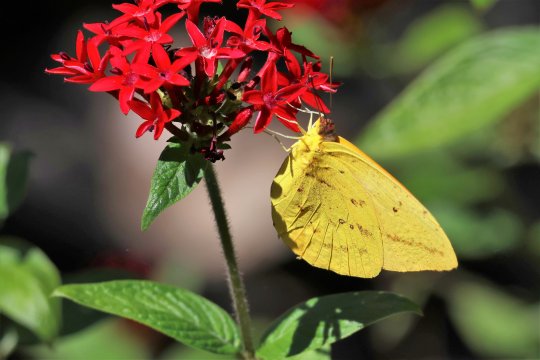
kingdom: Animalia
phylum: Arthropoda
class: Insecta
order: Lepidoptera
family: Pieridae
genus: Phoebis
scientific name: Phoebis agarithe
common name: Large Orange Sulphur
